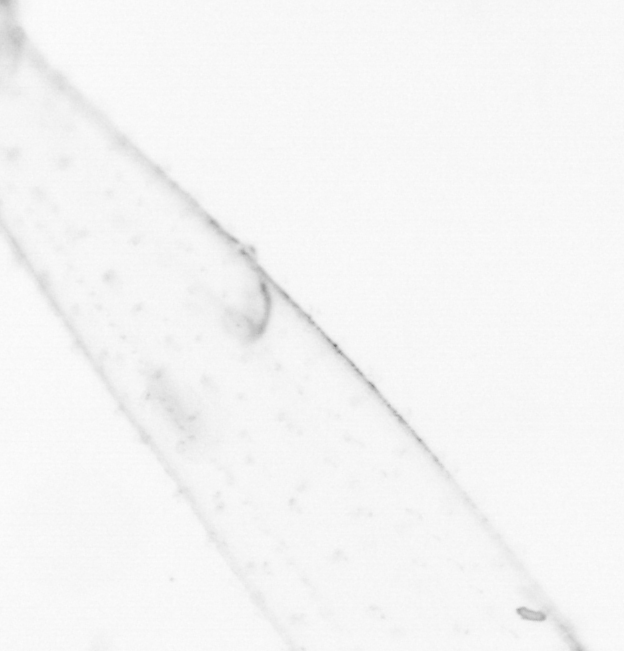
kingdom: Animalia
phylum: Chaetognatha
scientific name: Chaetognatha
